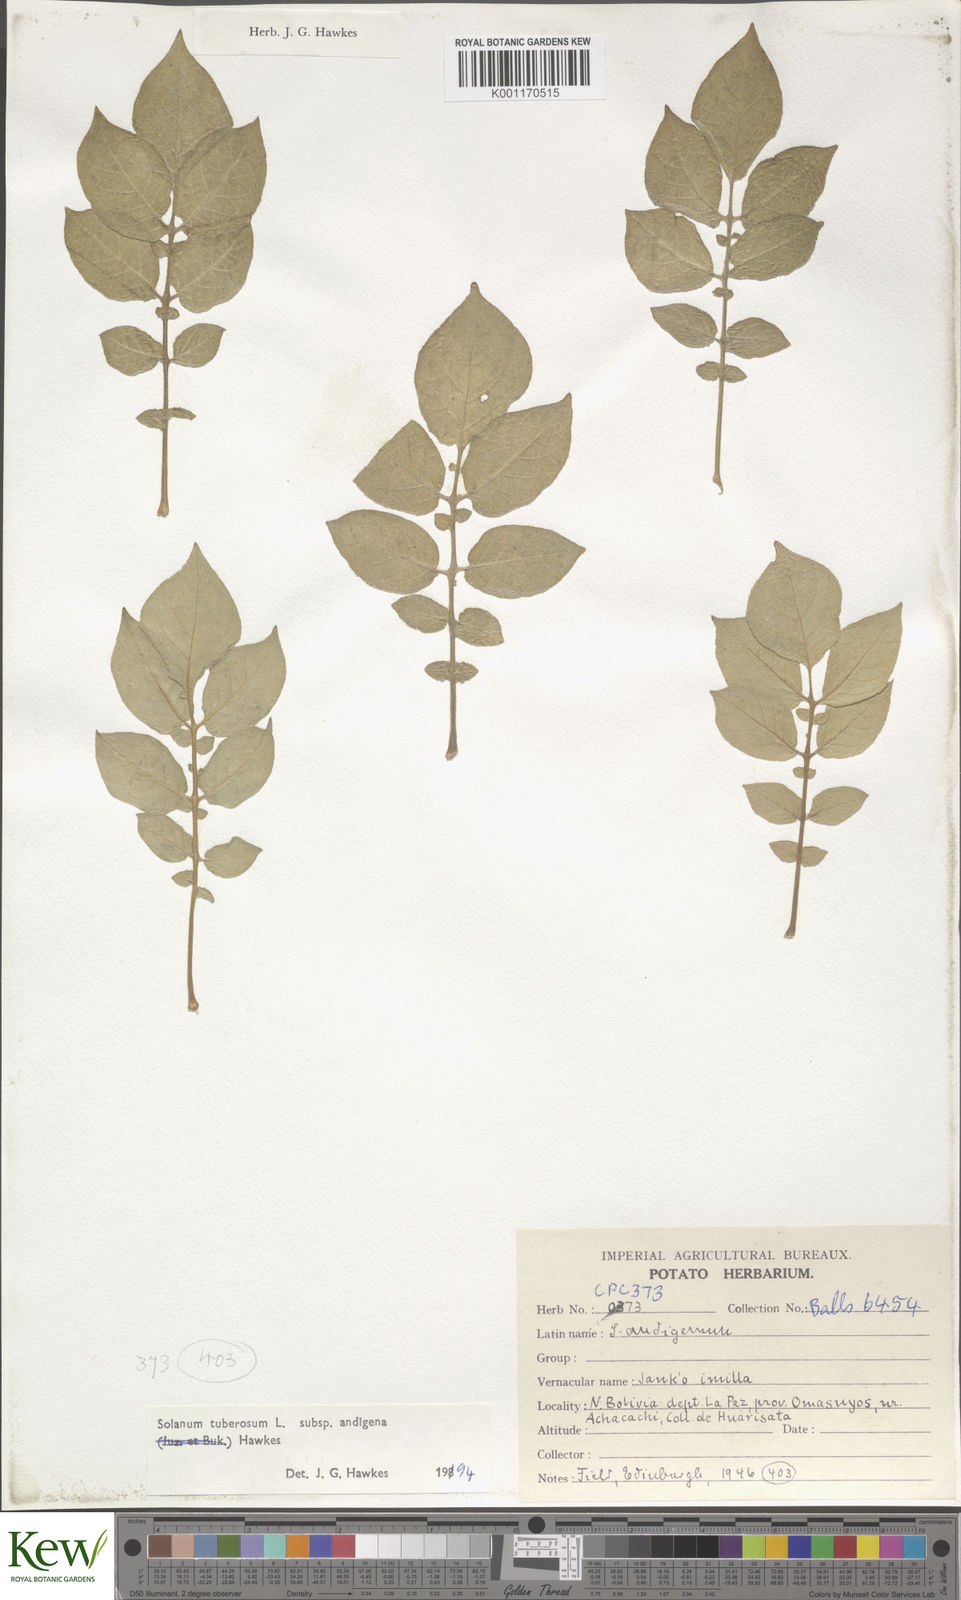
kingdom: Plantae
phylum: Tracheophyta
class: Magnoliopsida
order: Solanales
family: Solanaceae
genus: Solanum
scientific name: Solanum tuberosum
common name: Potato
